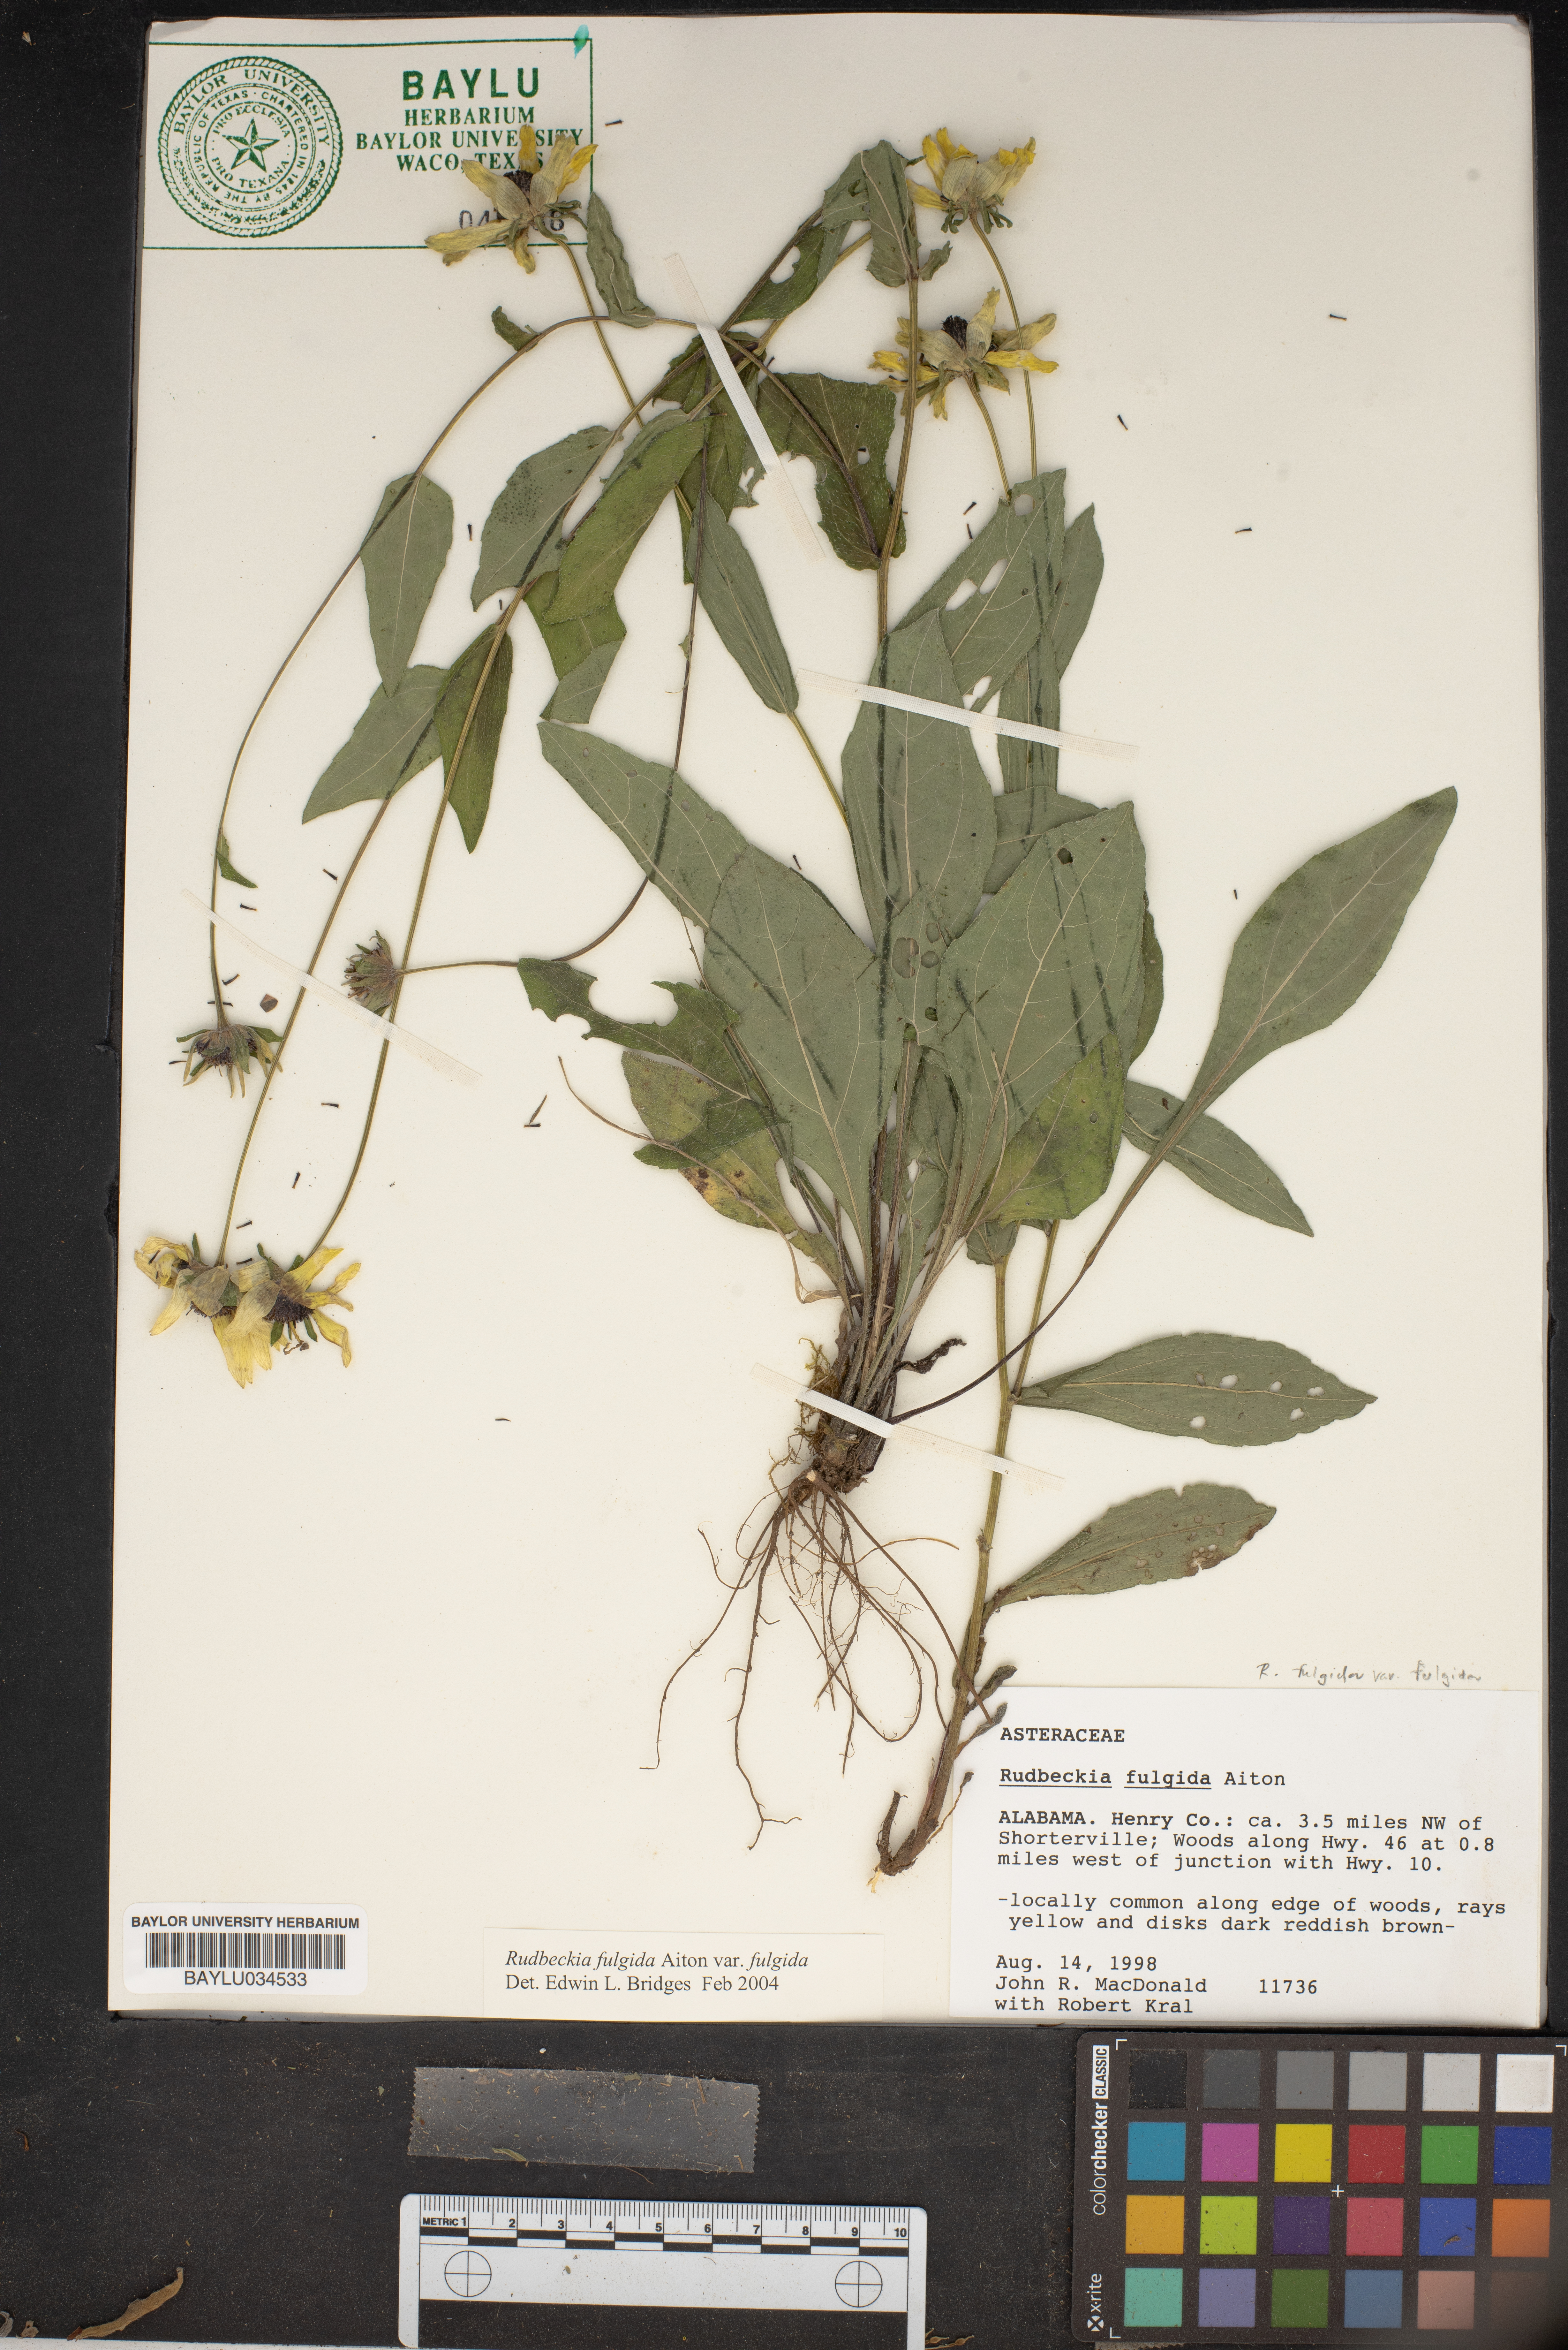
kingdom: Plantae
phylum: Tracheophyta
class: Magnoliopsida
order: Asterales
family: Asteraceae
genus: Rudbeckia
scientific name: Rudbeckia fulgida
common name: Perennial coneflower
